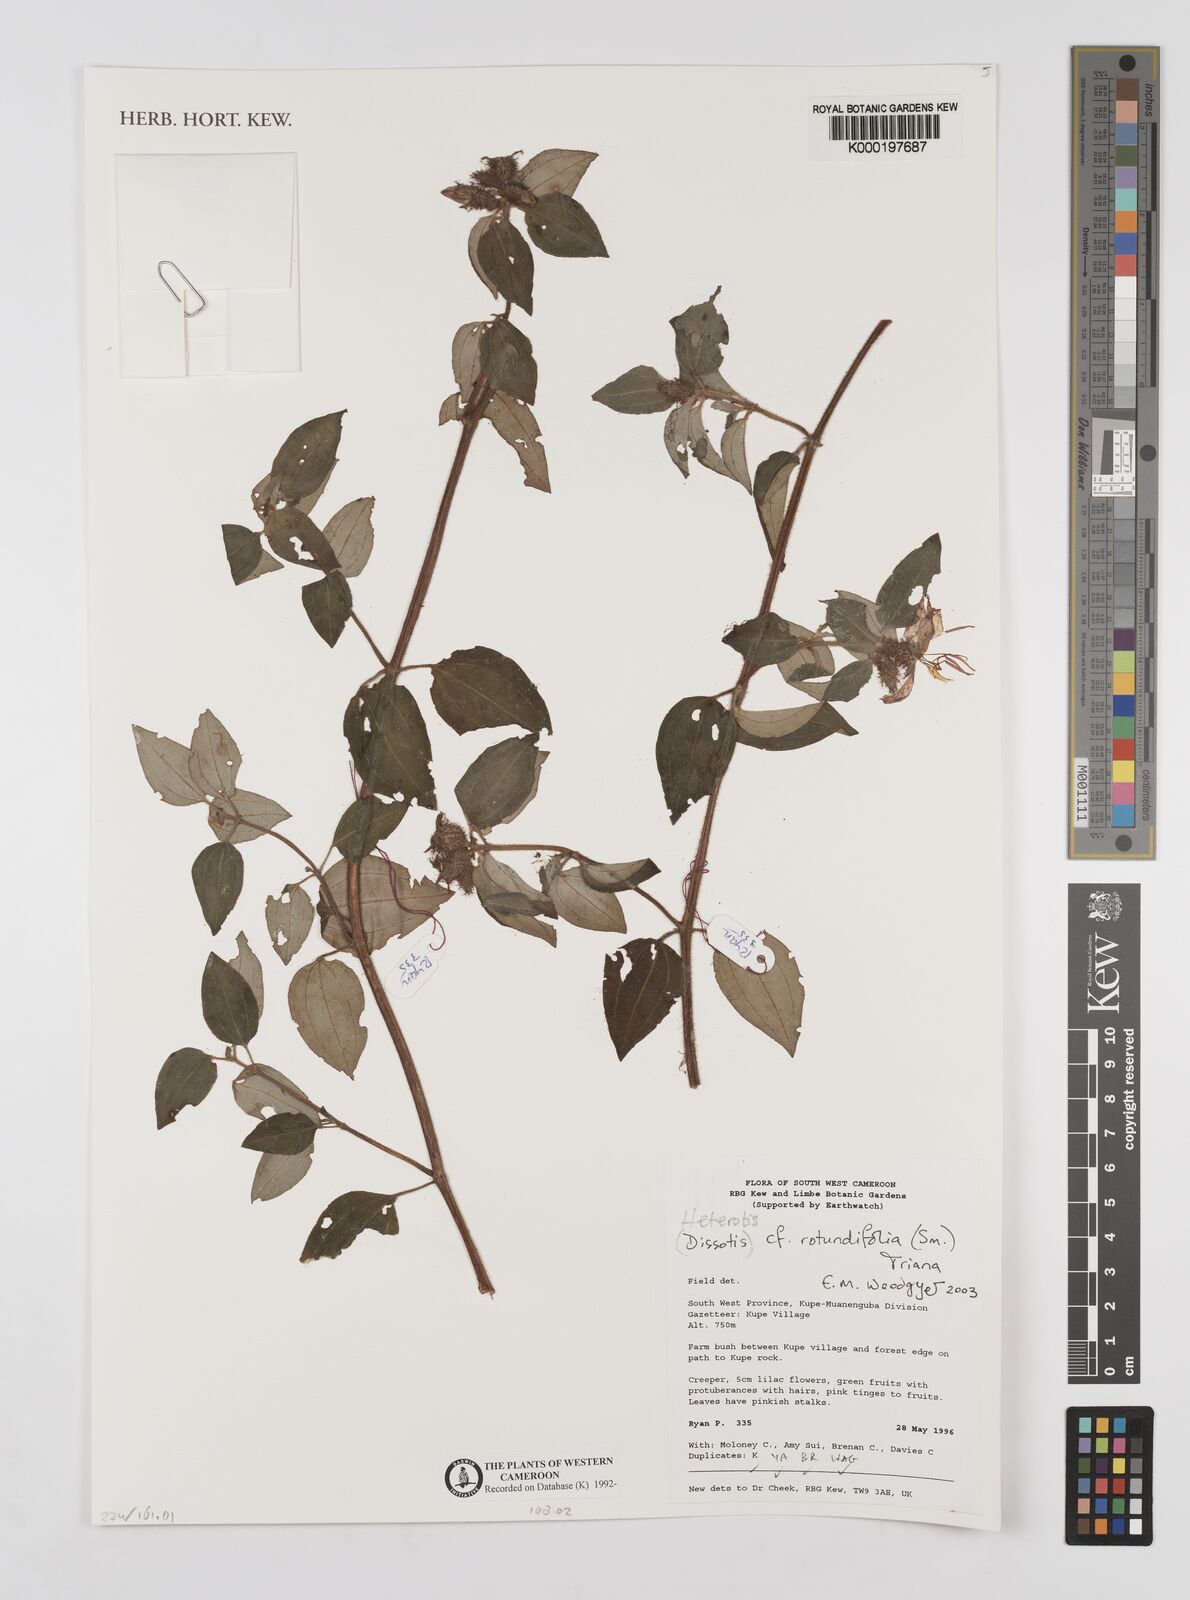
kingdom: Plantae
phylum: Tracheophyta
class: Magnoliopsida
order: Myrtales
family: Melastomataceae
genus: Heterotis
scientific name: Heterotis rotundifolia
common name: Pinklady
